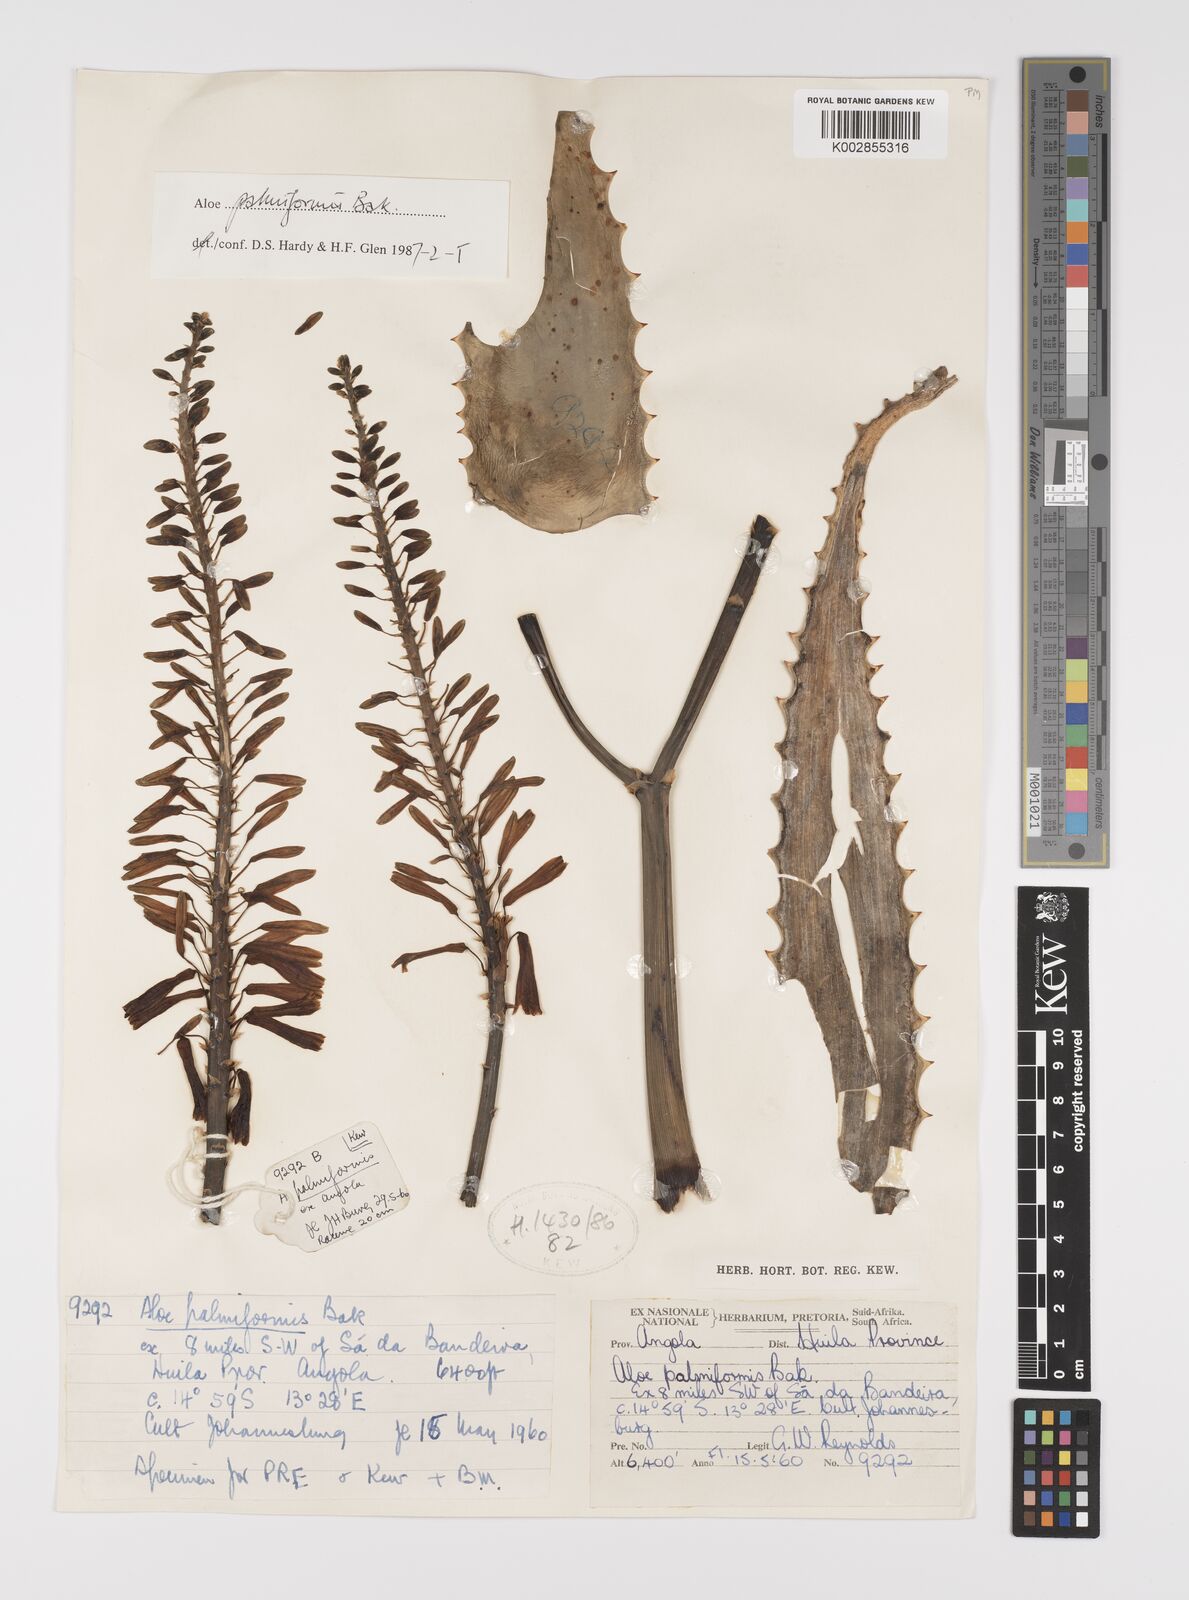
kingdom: Plantae
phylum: Tracheophyta
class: Liliopsida
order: Asparagales
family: Asphodelaceae
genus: Aloe
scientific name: Aloe palmiformis
